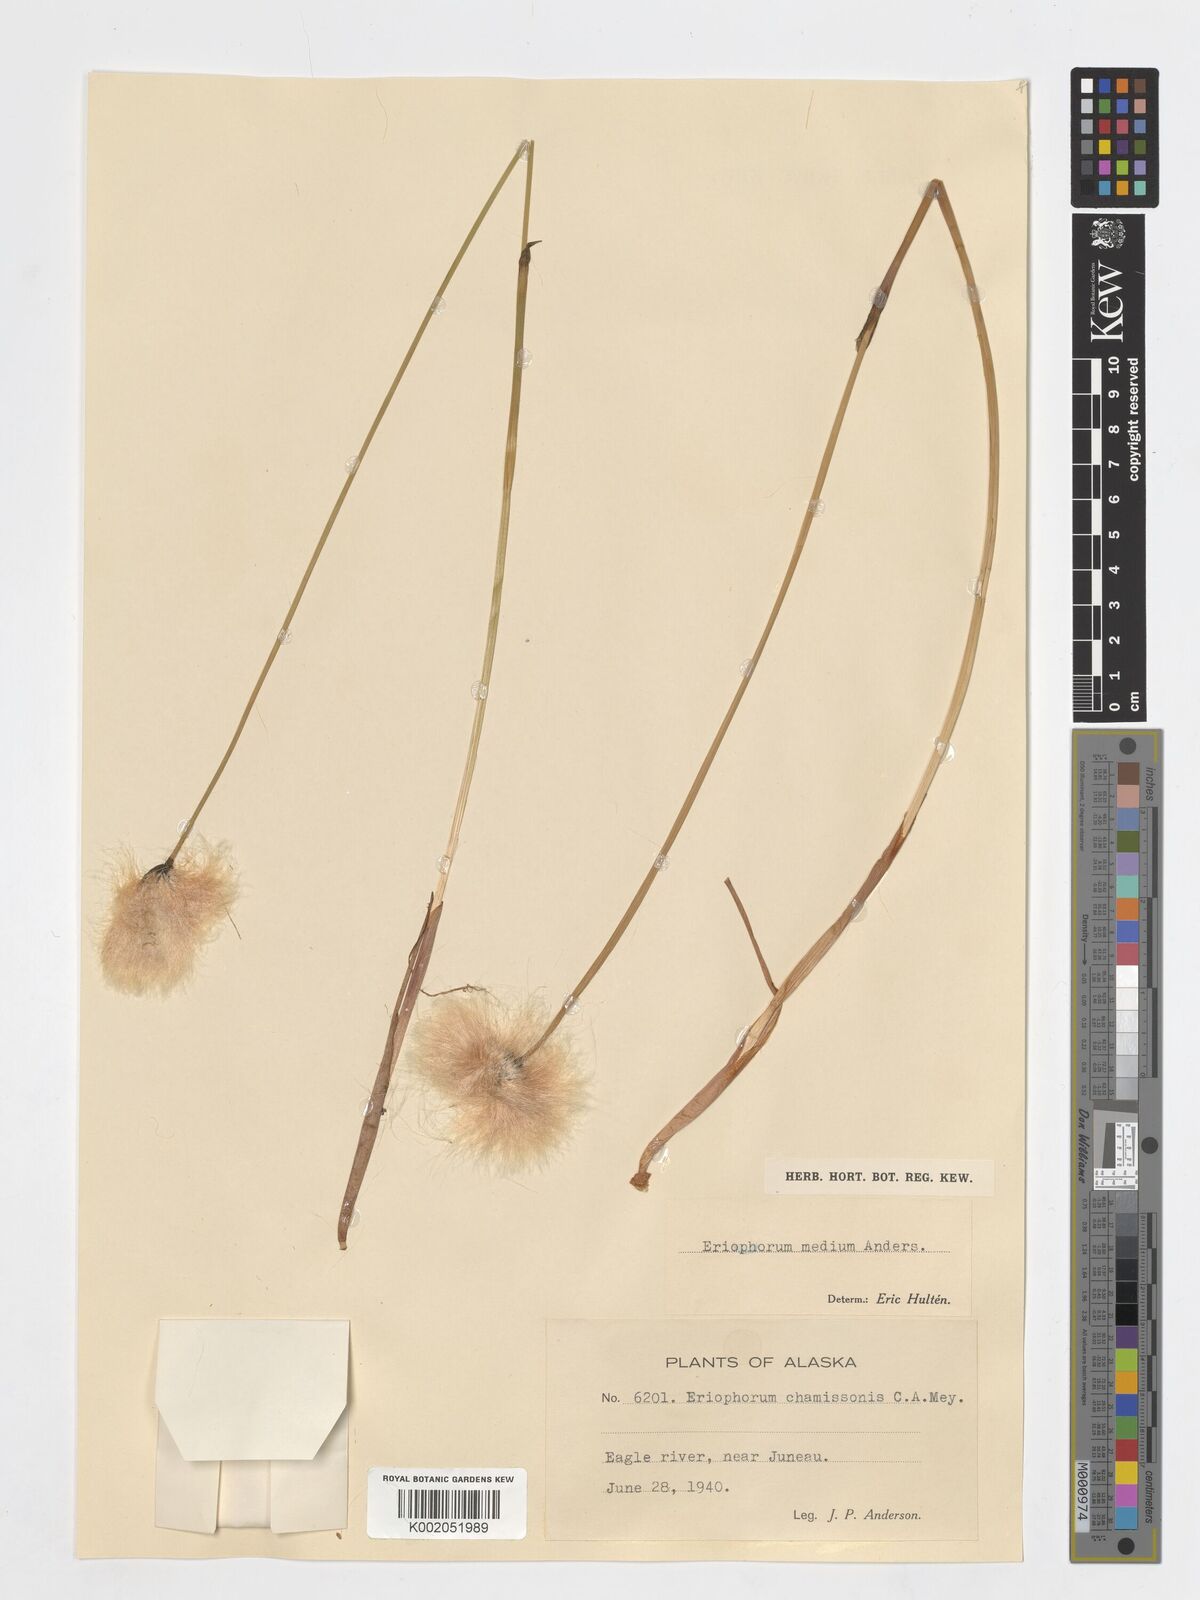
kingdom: Plantae
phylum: Tracheophyta
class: Liliopsida
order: Poales
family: Cyperaceae
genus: Eriophorum
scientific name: Eriophorum medium
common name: Intermediate cottongrass
